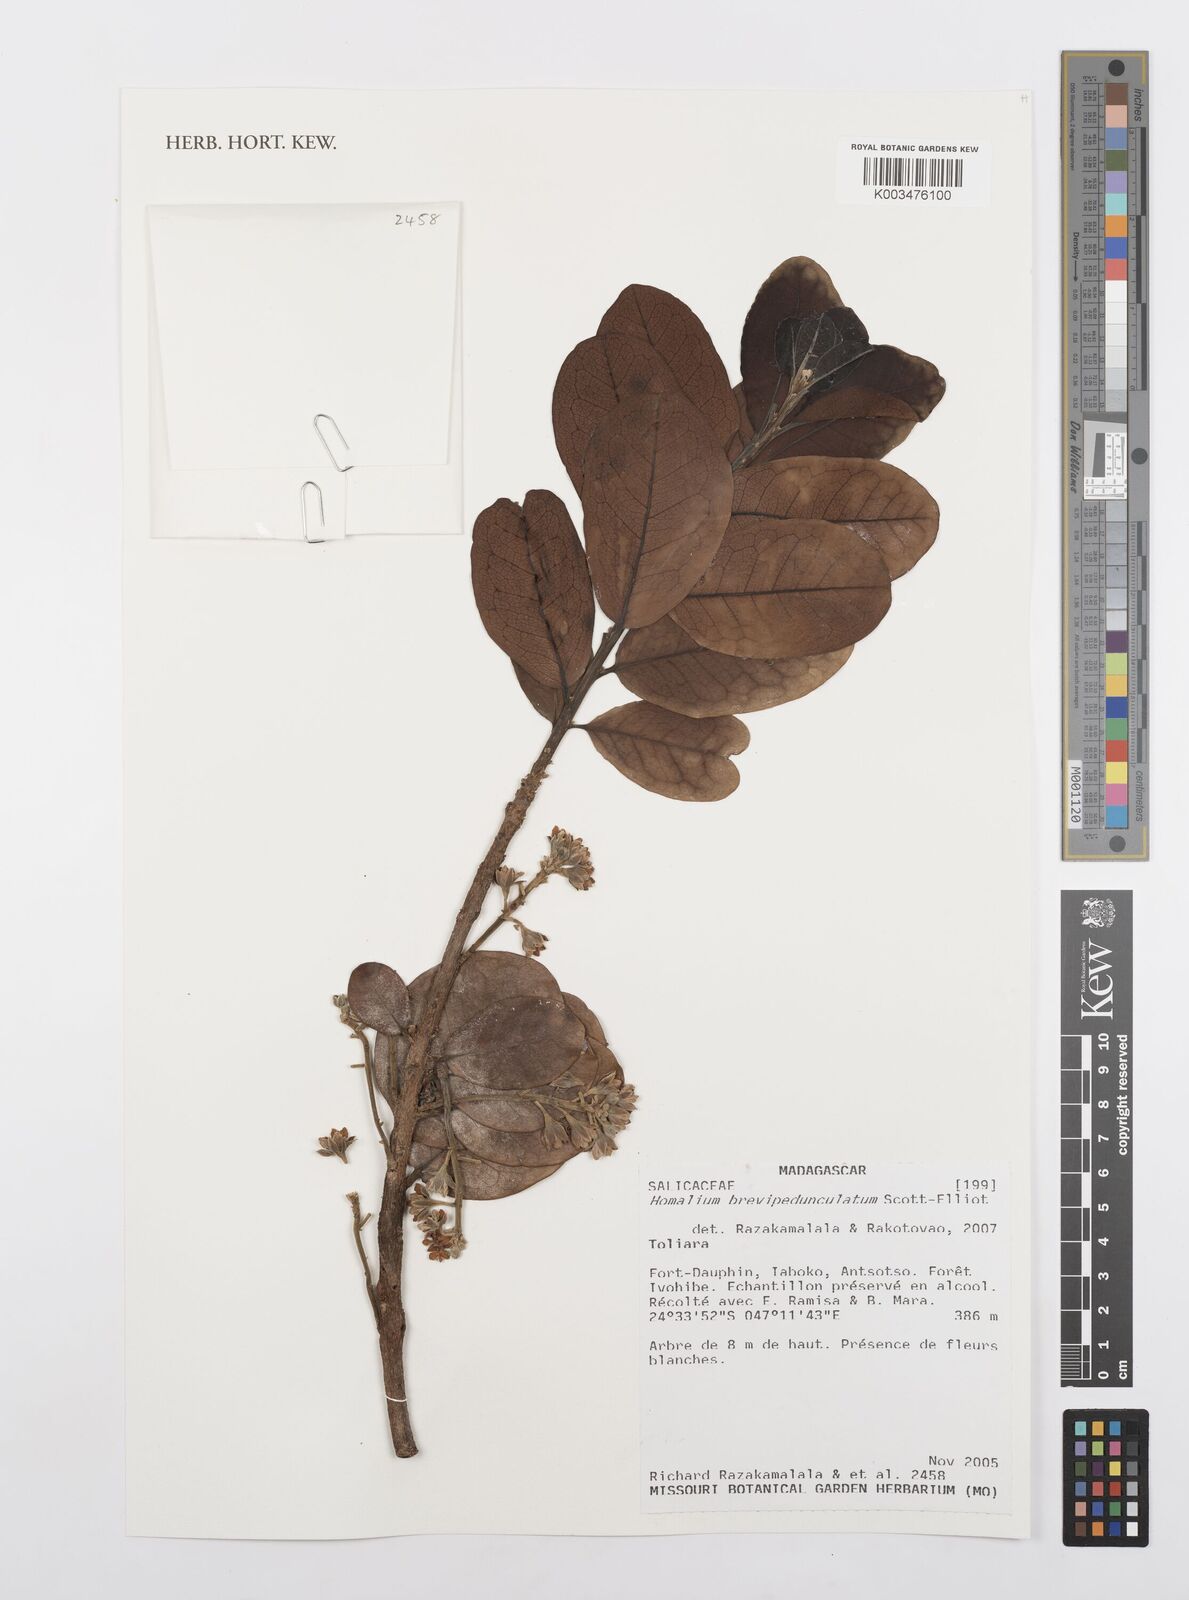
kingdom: Plantae
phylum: Tracheophyta
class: Magnoliopsida
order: Malpighiales
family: Salicaceae
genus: Homalium
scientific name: Homalium brevipedunculatum
